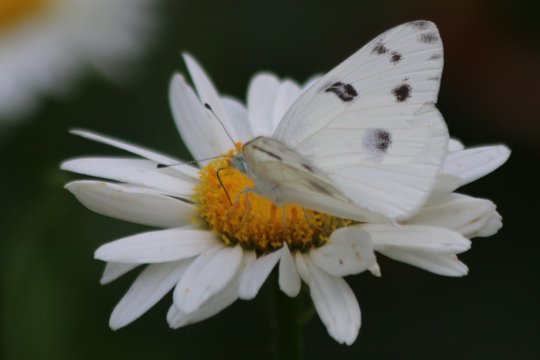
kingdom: Animalia
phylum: Arthropoda
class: Insecta
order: Lepidoptera
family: Pieridae
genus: Pontia
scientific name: Pontia protodice
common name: Checkered White
